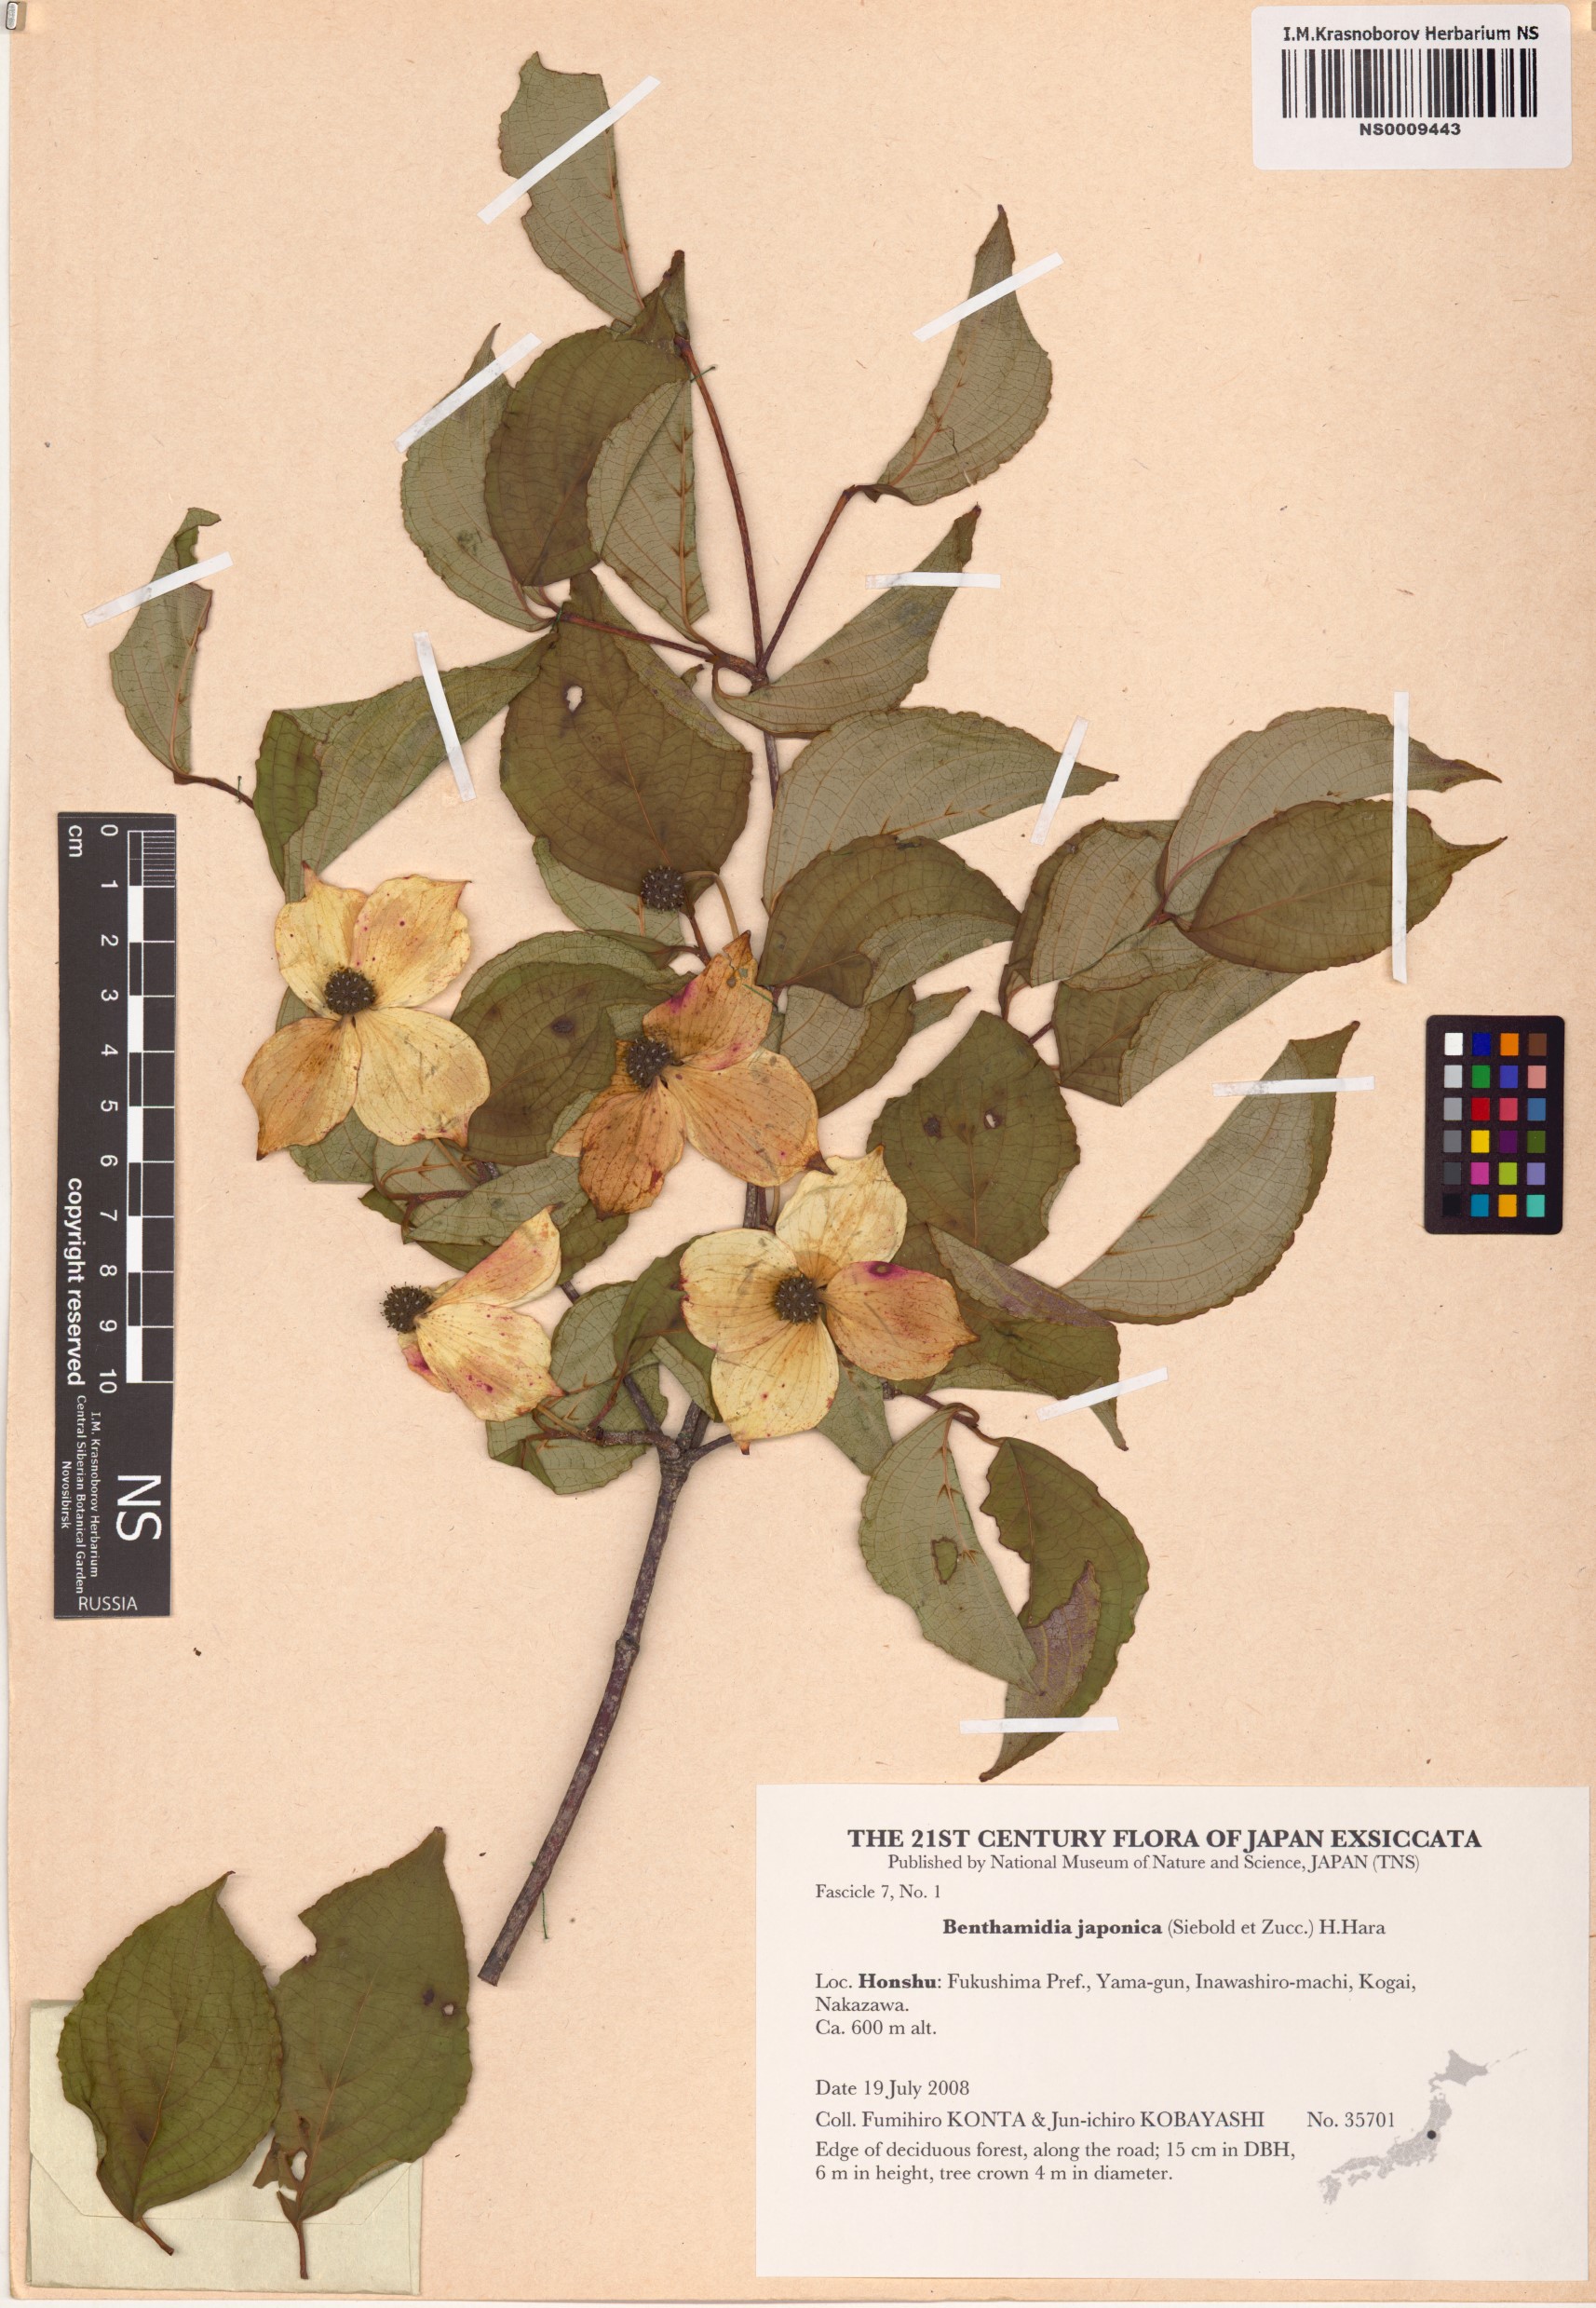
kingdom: Plantae
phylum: Tracheophyta
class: Magnoliopsida
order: Cornales
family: Cornaceae
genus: Cornus
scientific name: Cornus kousa
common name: Japanese dogwood
